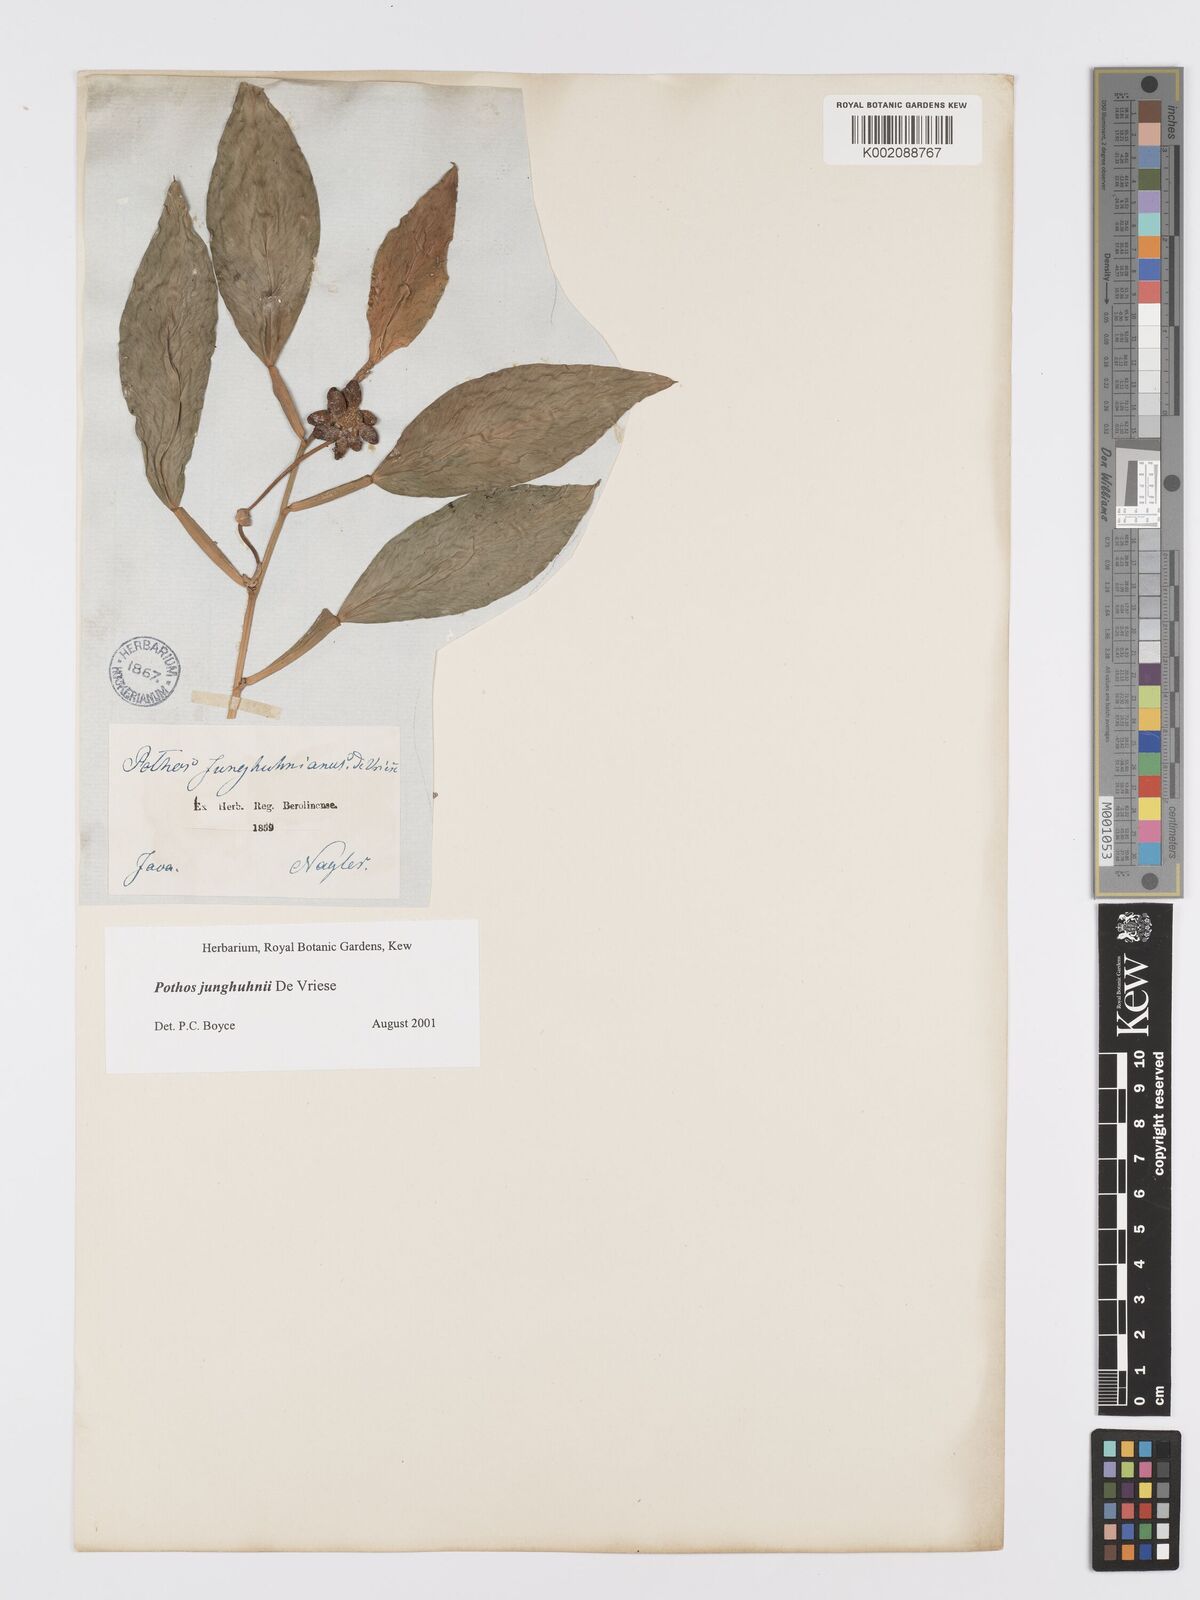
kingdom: Plantae
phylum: Tracheophyta
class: Liliopsida
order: Alismatales
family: Araceae
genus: Pothos
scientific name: Pothos junghuhnii
